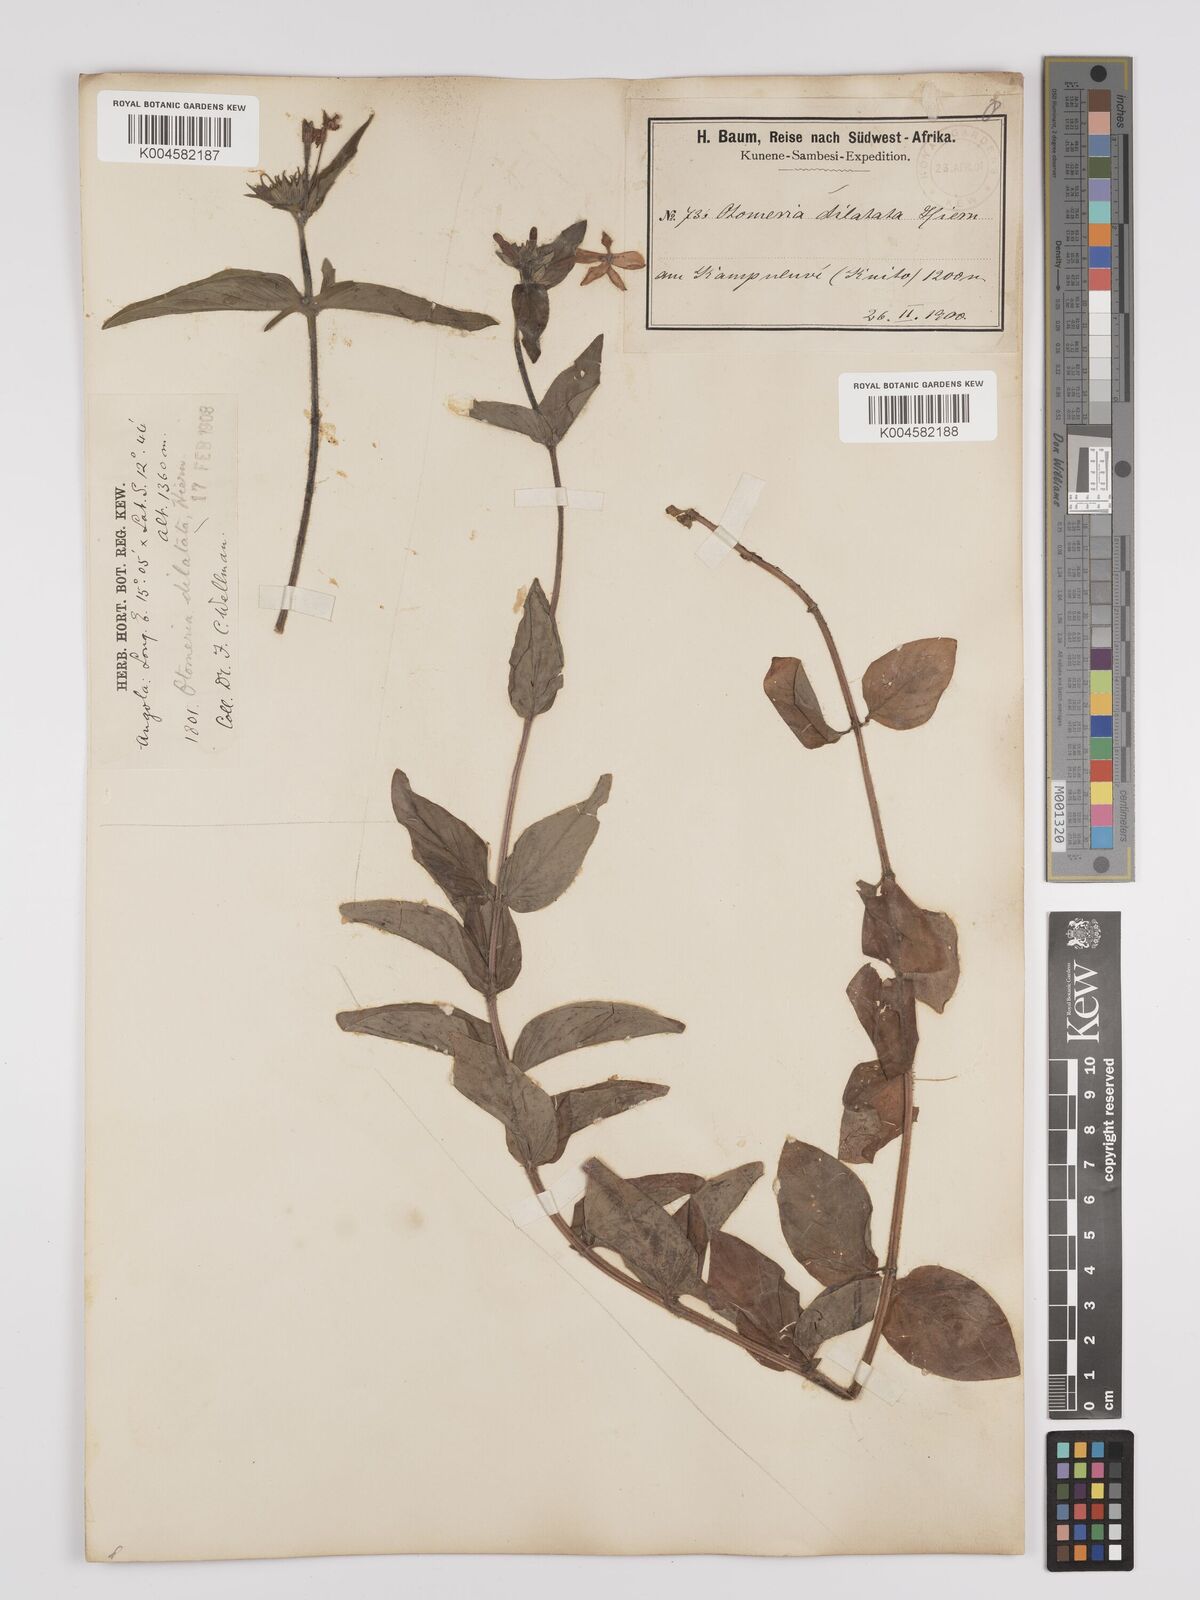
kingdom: Plantae
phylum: Tracheophyta
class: Magnoliopsida
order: Gentianales
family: Rubiaceae
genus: Otomeria
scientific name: Otomeria elatior
